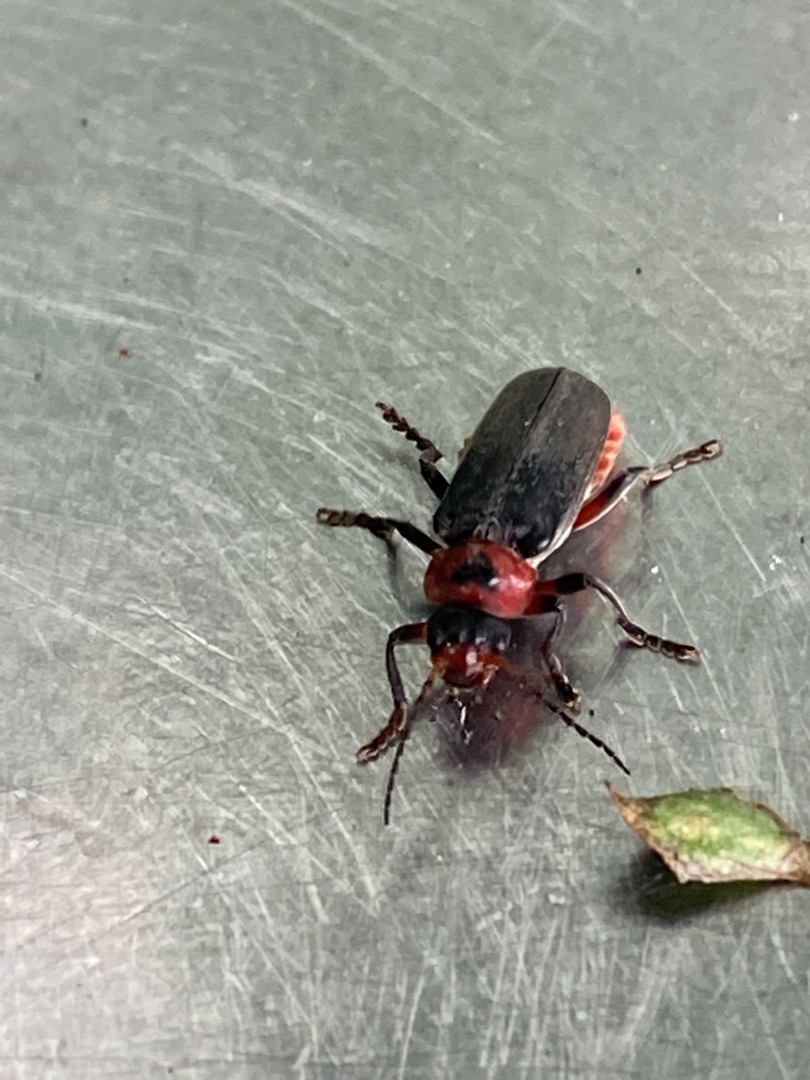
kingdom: Animalia
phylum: Arthropoda
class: Insecta
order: Coleoptera
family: Cantharidae
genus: Cantharis
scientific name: Cantharis rustica
